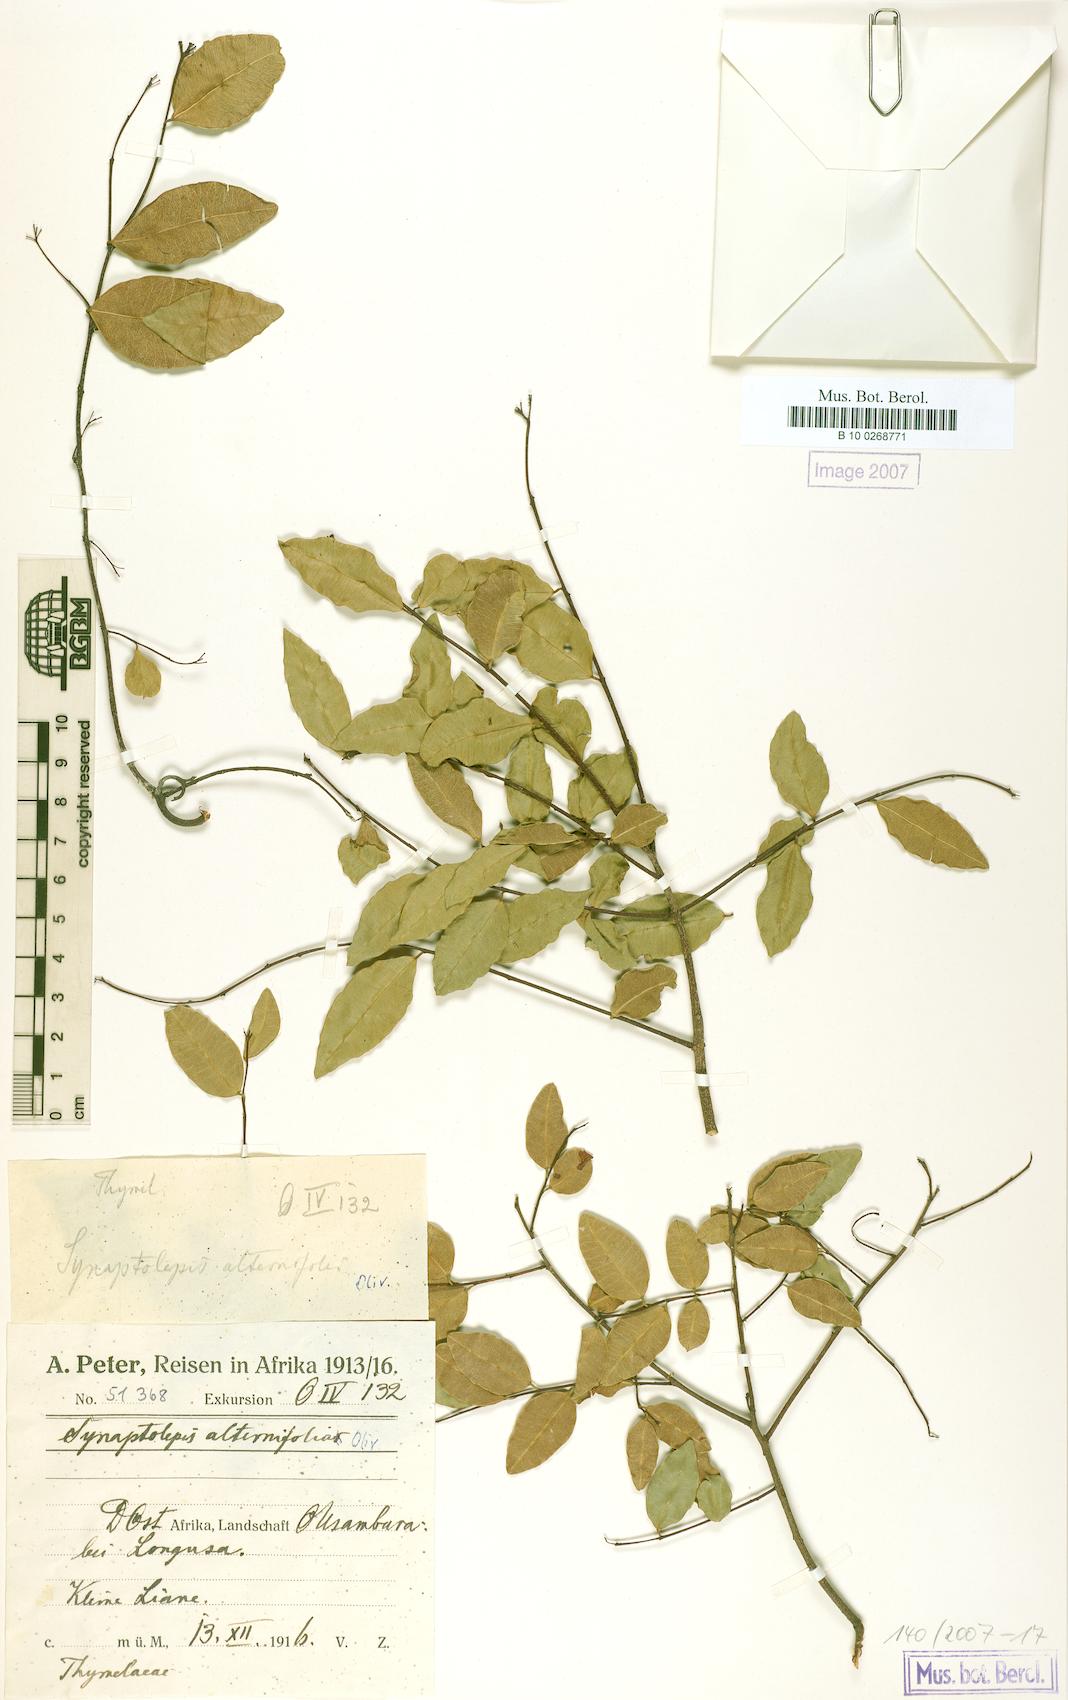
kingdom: Plantae
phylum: Tracheophyta
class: Magnoliopsida
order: Malvales
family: Thymelaeaceae
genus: Synaptolepis
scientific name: Synaptolepis alternifolia
